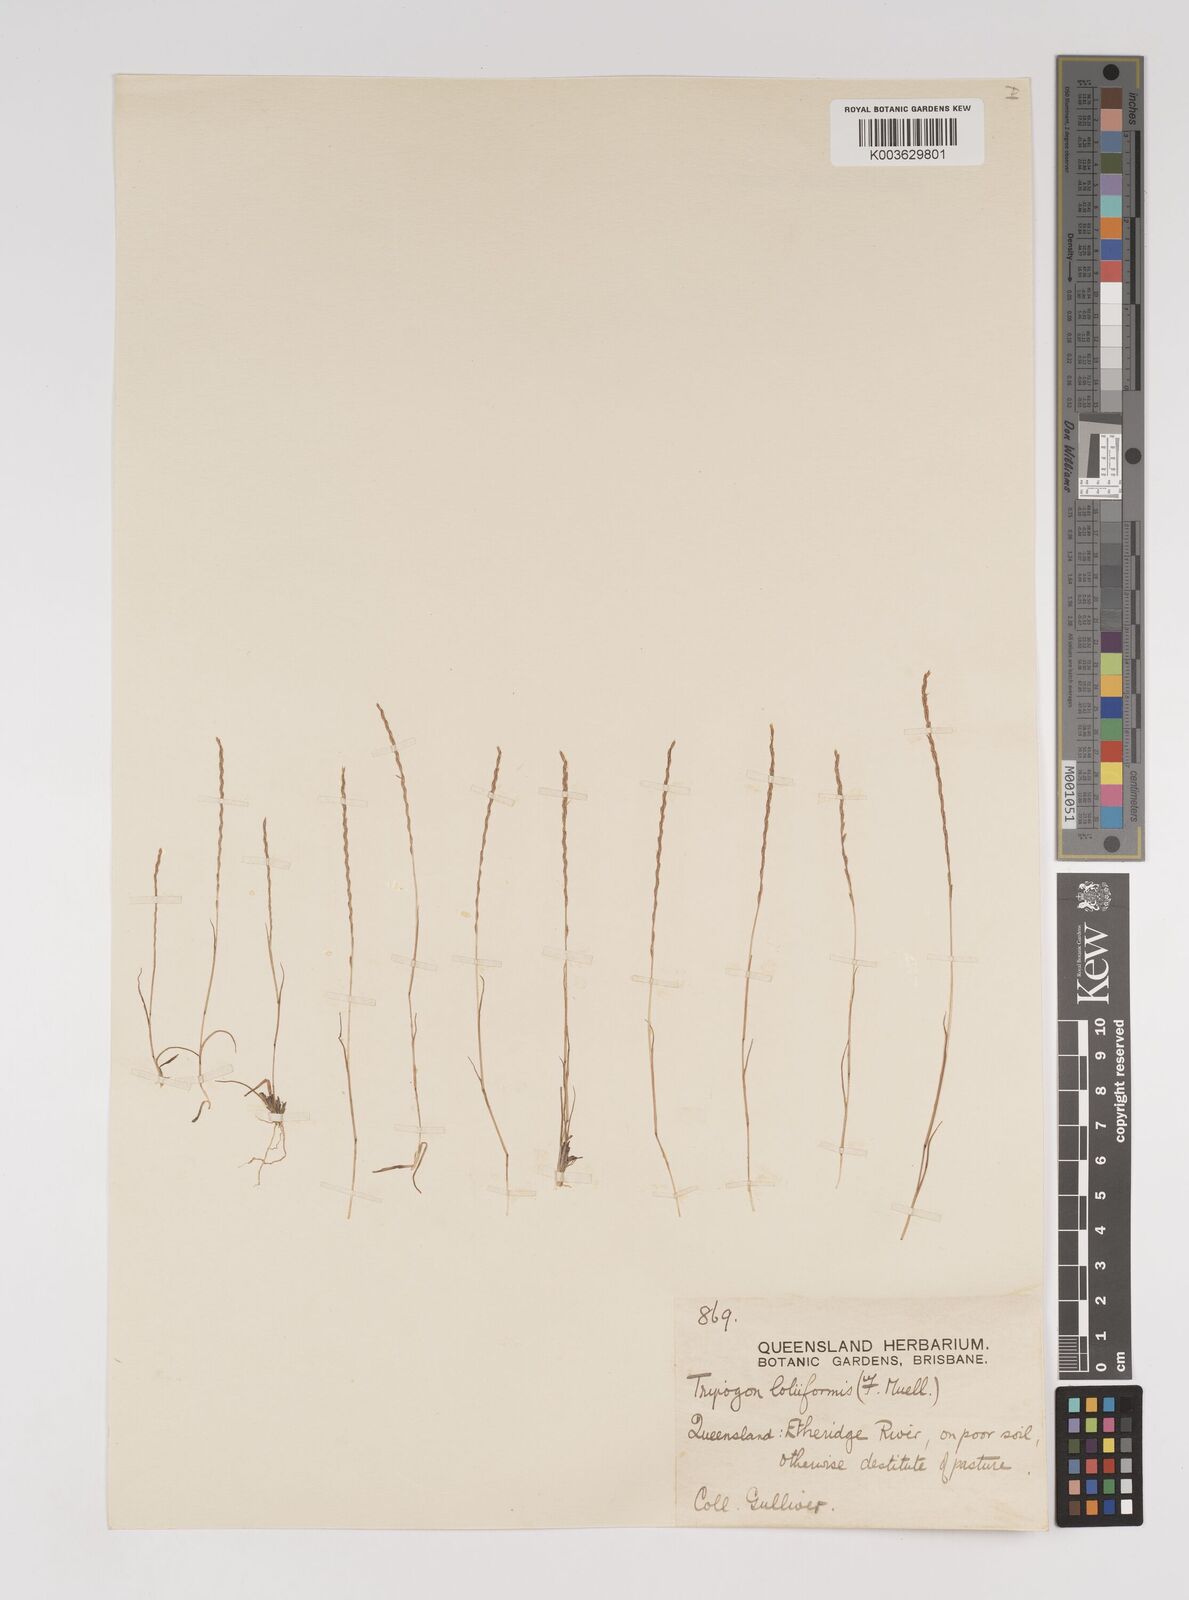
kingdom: Plantae
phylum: Tracheophyta
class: Liliopsida
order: Poales
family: Poaceae
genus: Tripogonella
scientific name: Tripogonella loliiformis
